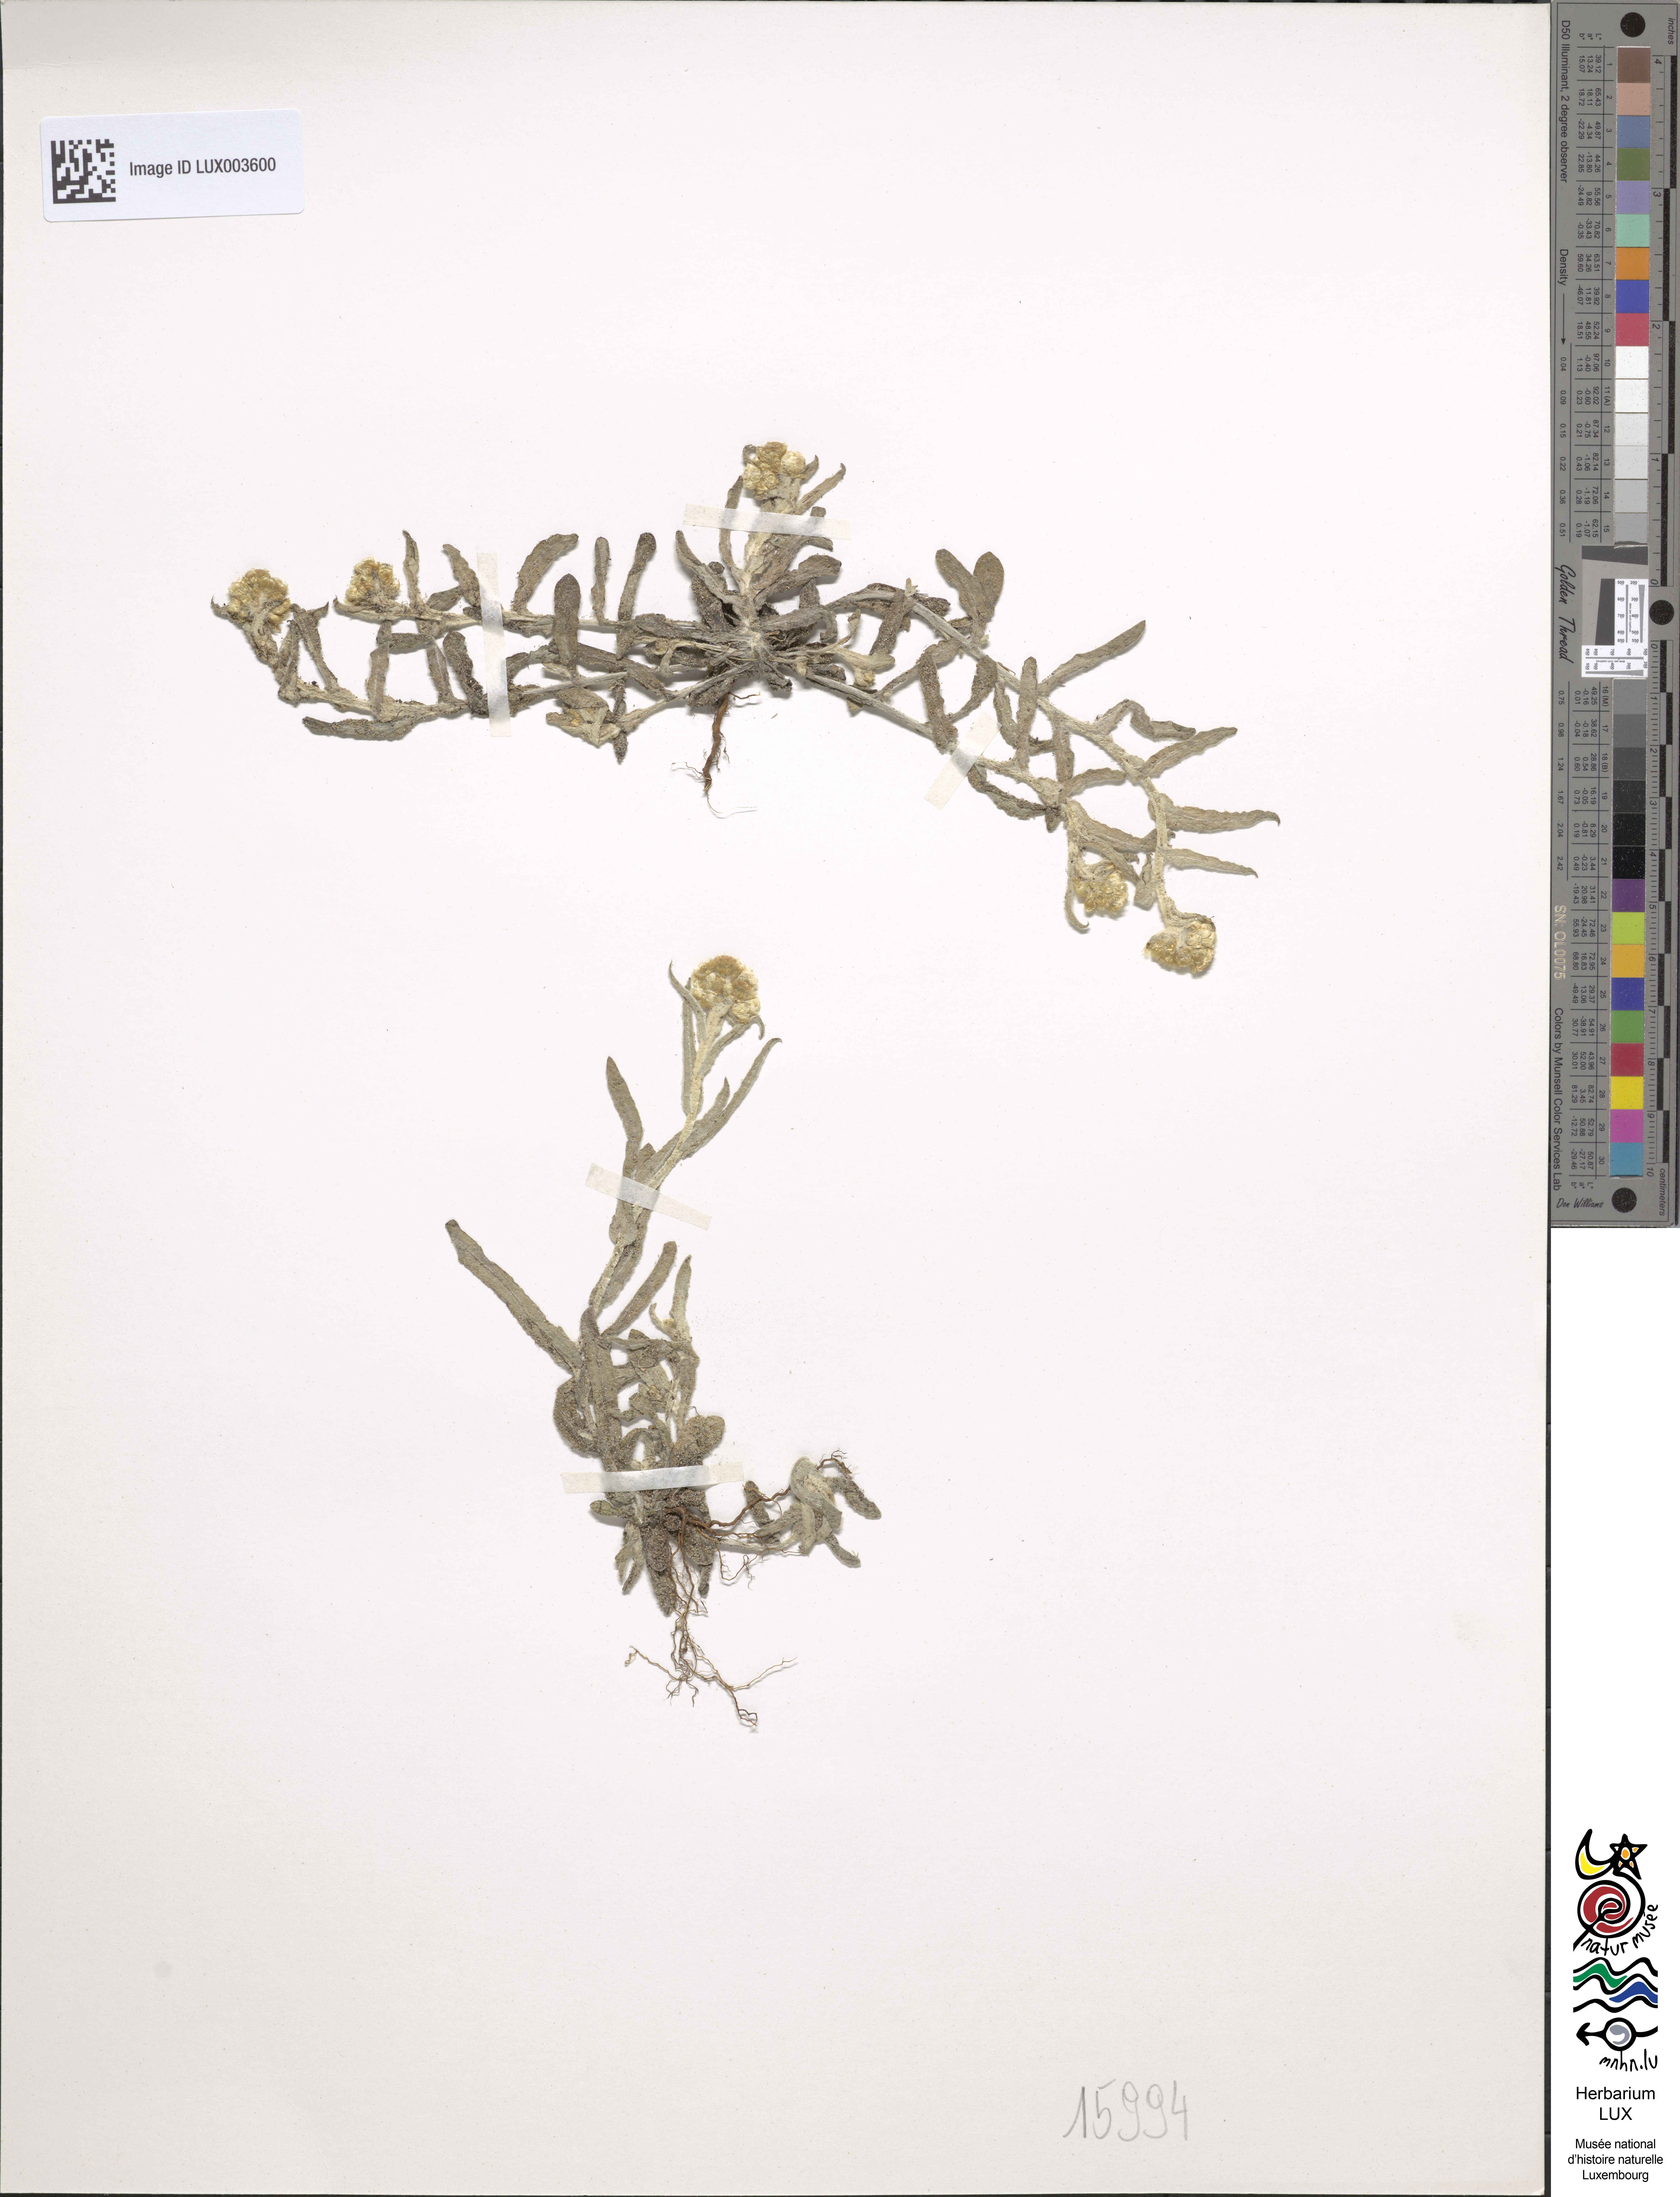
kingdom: Plantae
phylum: Tracheophyta
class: Magnoliopsida
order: Asterales
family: Asteraceae
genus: Helichrysum
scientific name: Helichrysum luteoalbum
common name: Daisy
